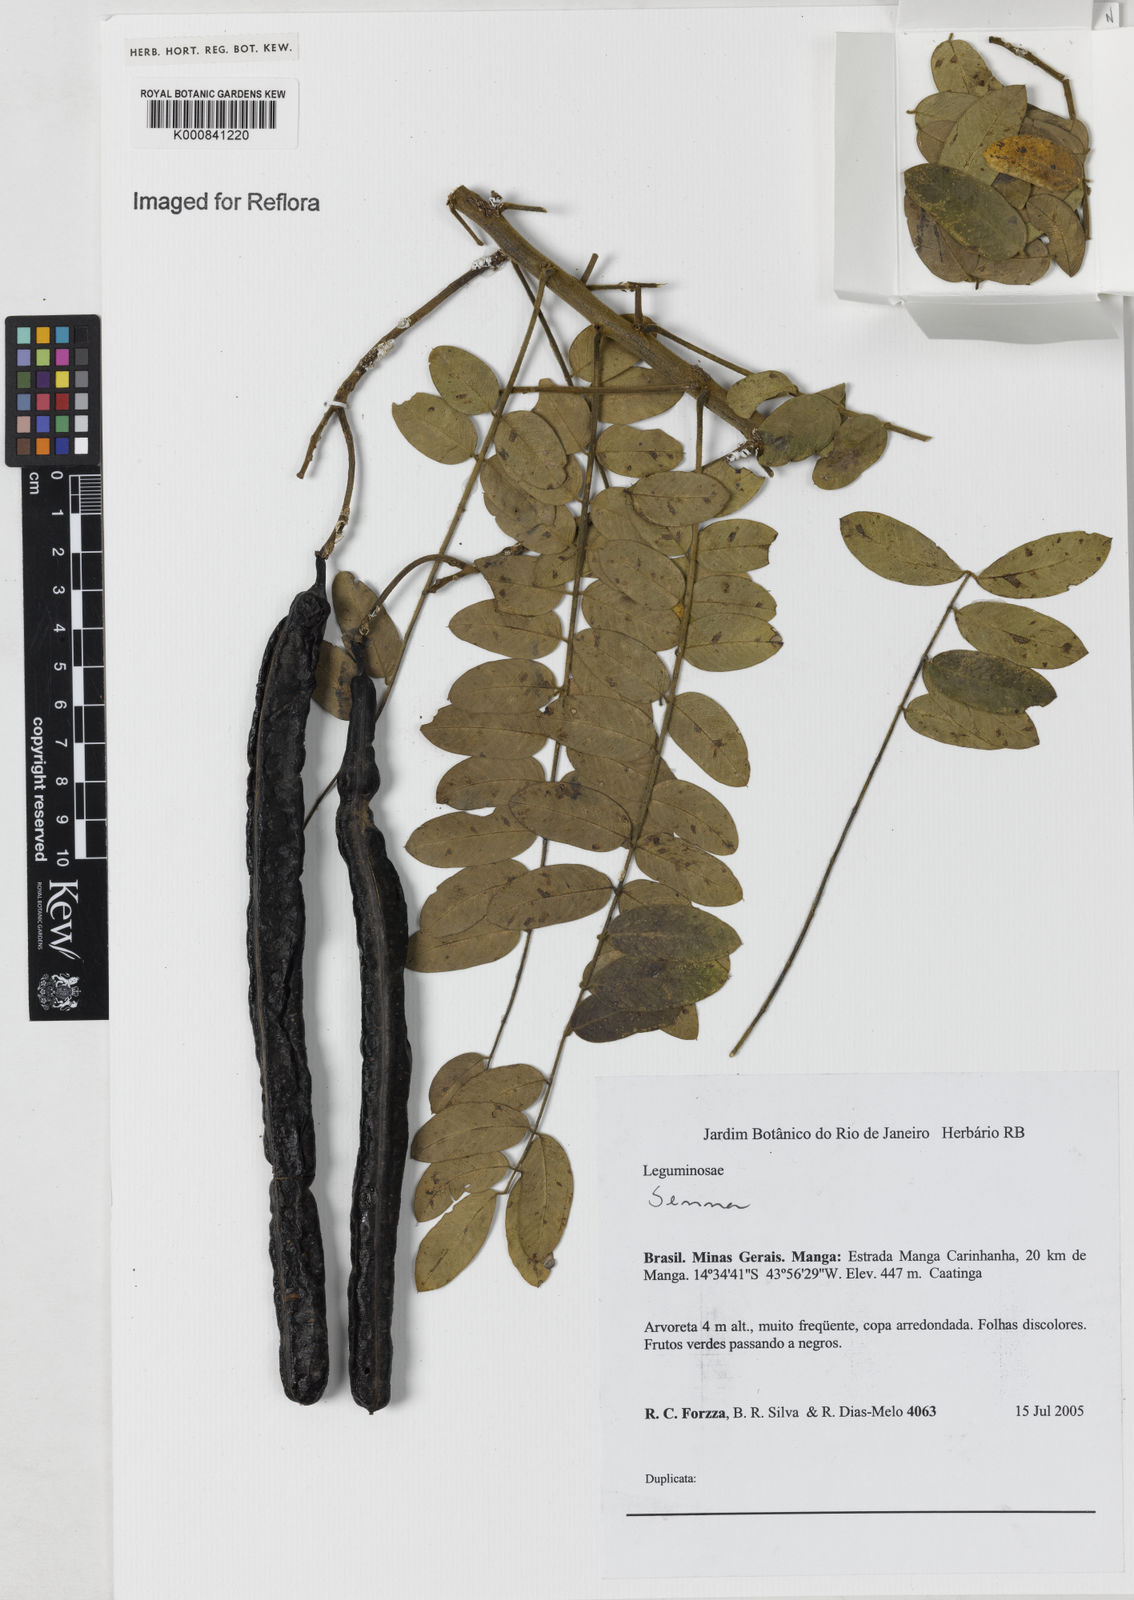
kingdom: Plantae
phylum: Tracheophyta
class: Magnoliopsida
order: Fabales
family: Fabaceae
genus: Senna
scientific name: Senna spectabilis
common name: Casia amarilla
